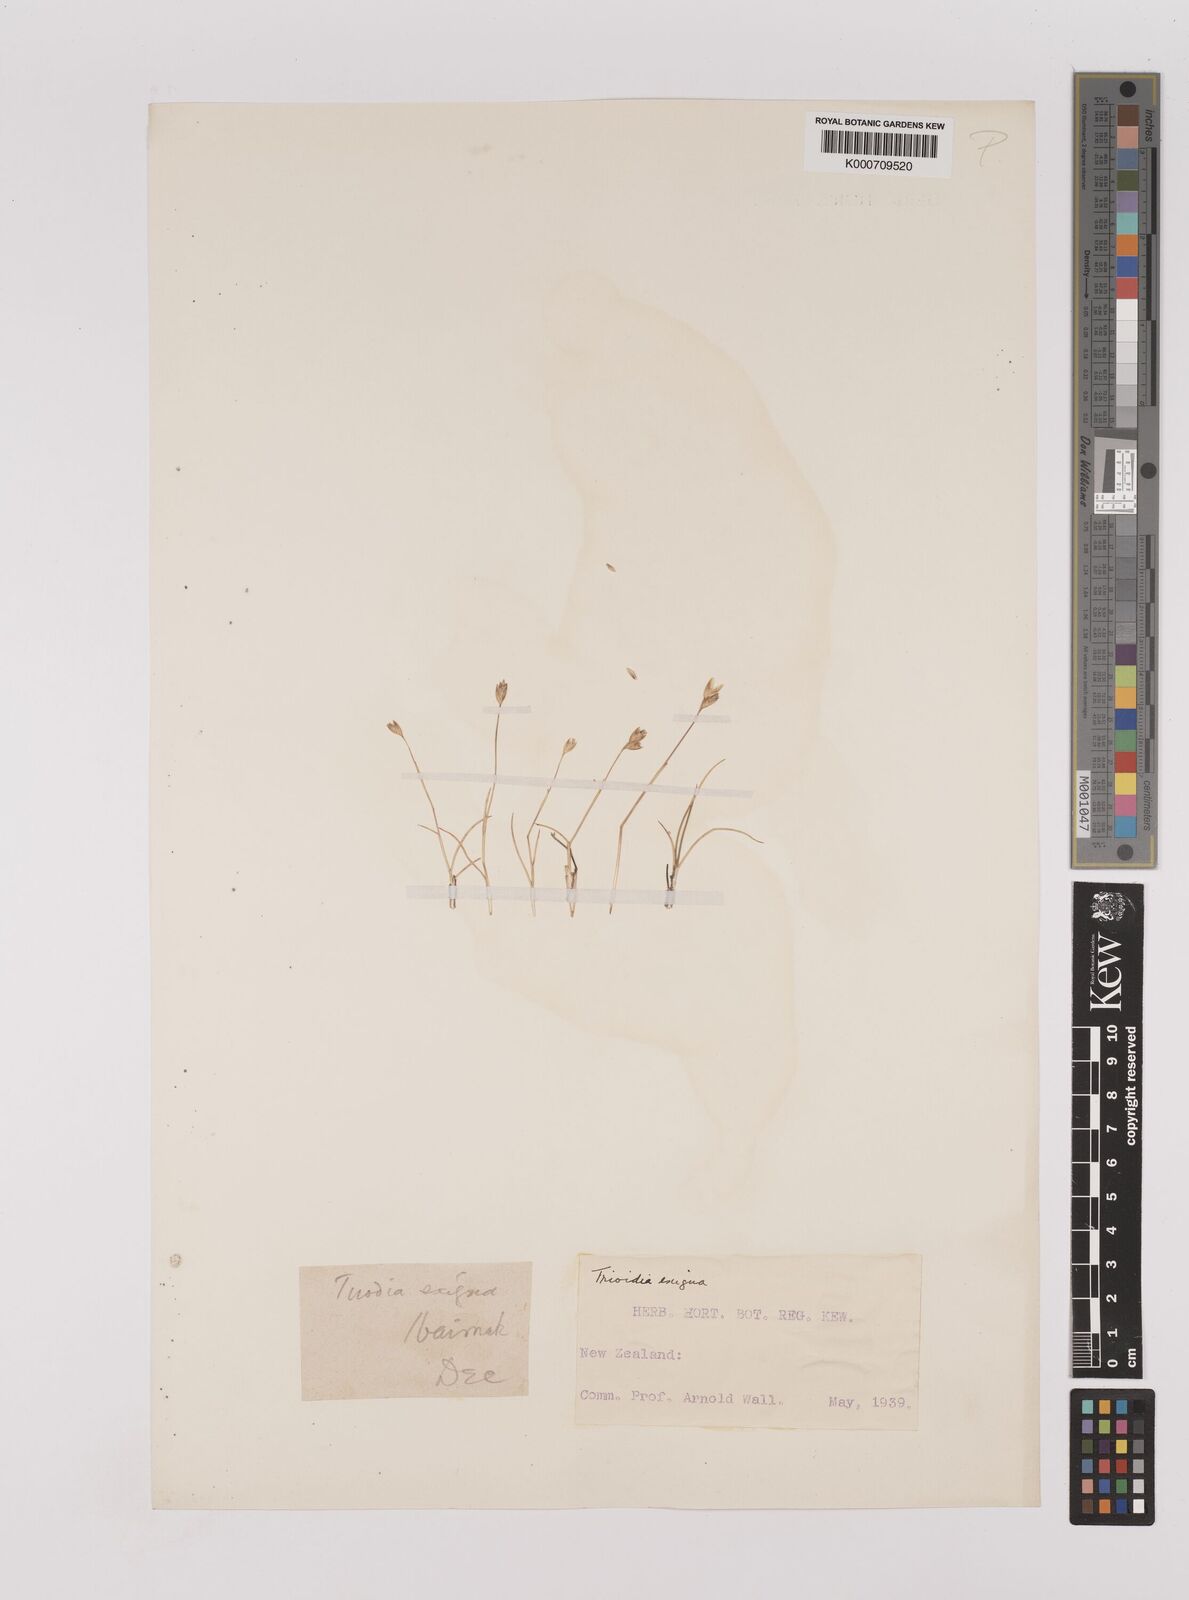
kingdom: Plantae
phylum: Tracheophyta
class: Liliopsida
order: Poales
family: Poaceae
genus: Rytidosperma
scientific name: Rytidosperma exiguum
